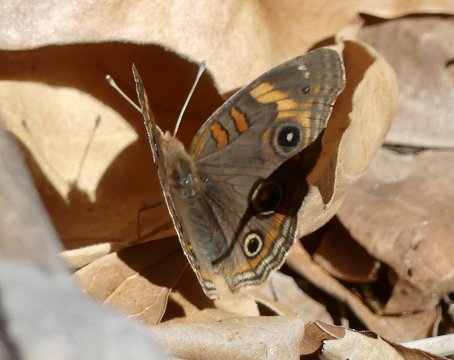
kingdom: Animalia
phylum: Arthropoda
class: Insecta
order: Lepidoptera
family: Nymphalidae
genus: Junonia
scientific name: Junonia lavinia
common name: Tropical Buckeye
